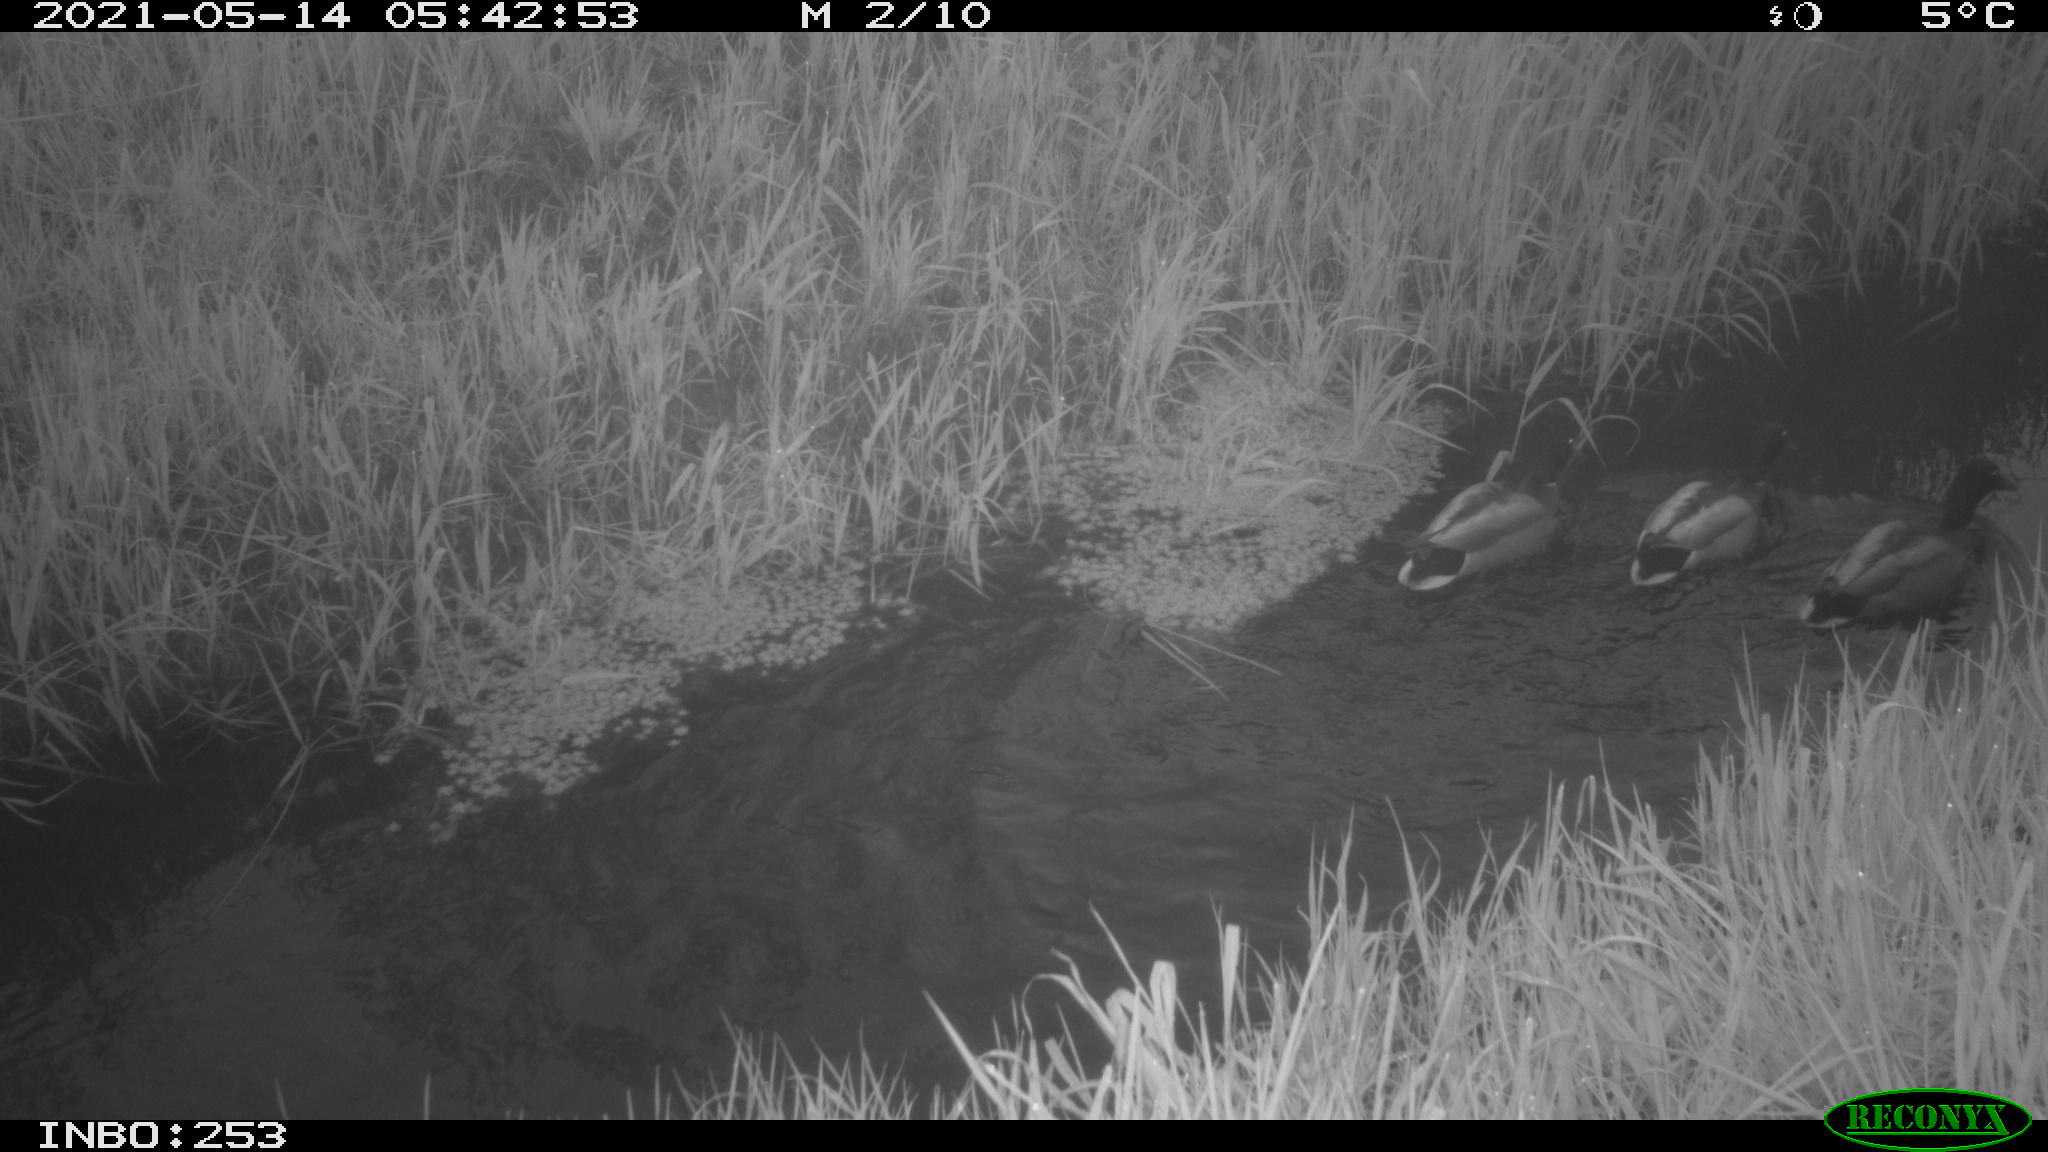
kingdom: Animalia
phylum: Chordata
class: Aves
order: Anseriformes
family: Anatidae
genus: Anas
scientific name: Anas platyrhynchos
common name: Mallard
